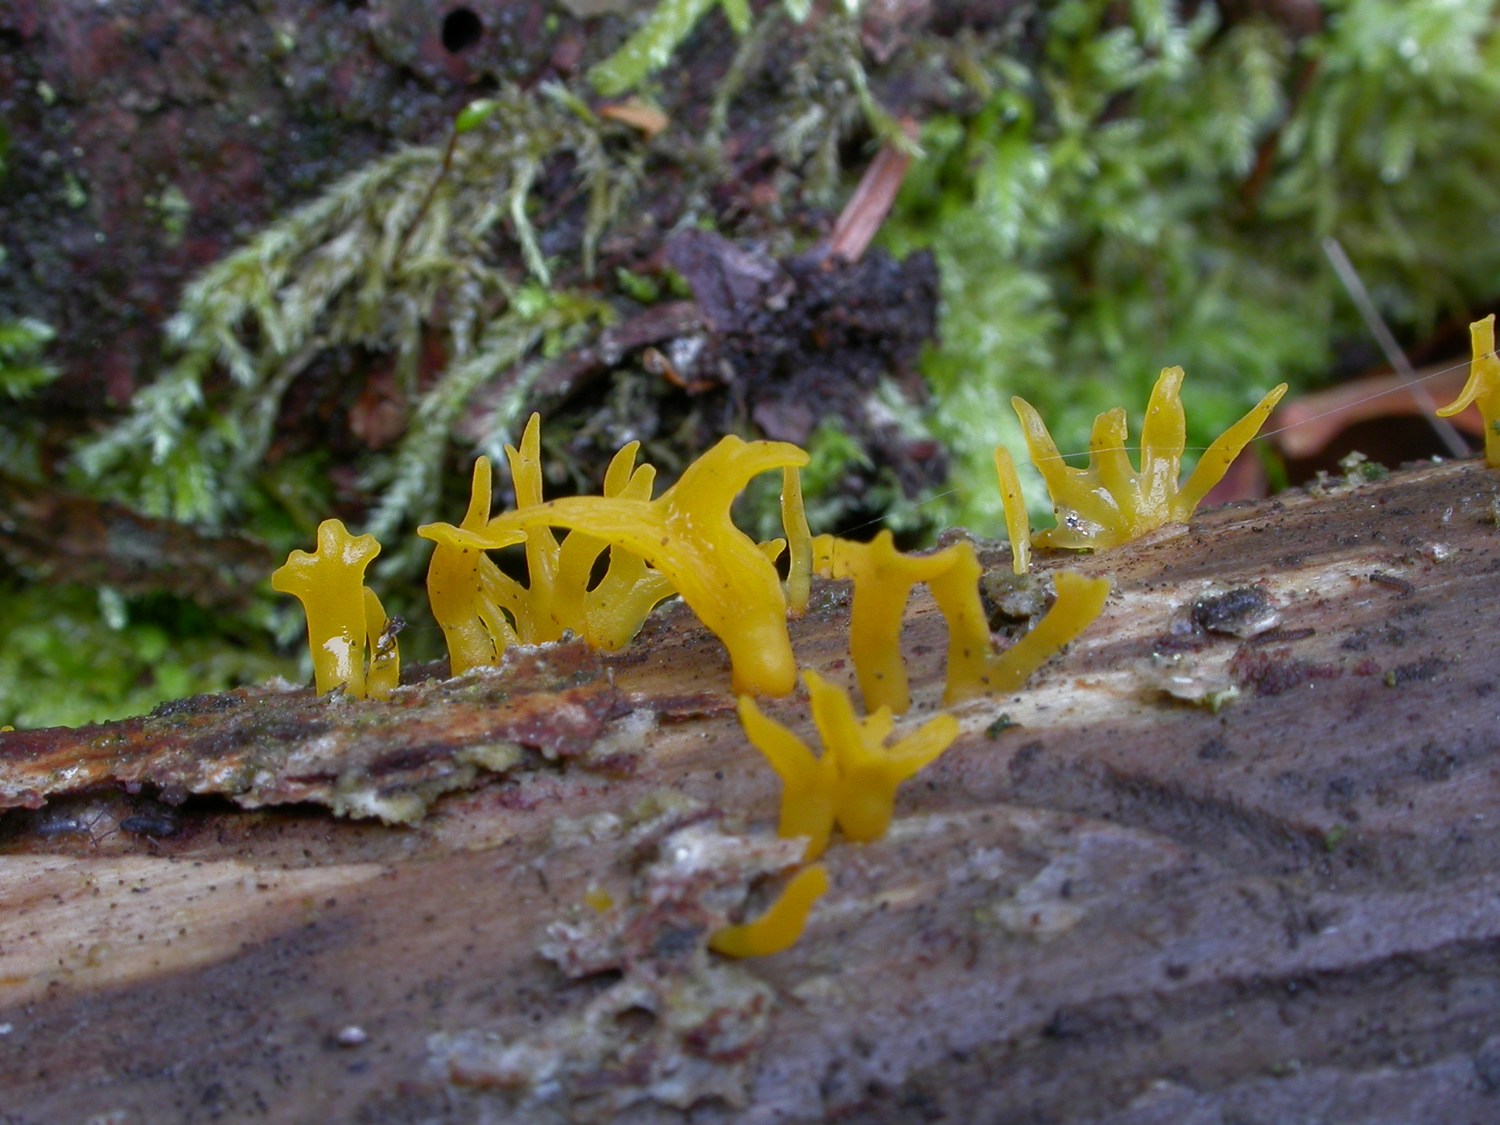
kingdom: Fungi
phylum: Basidiomycota
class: Dacrymycetes
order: Dacrymycetales
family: Dacrymycetaceae
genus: Calocera
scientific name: Calocera furcata
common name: fyrre-guldgaffel
